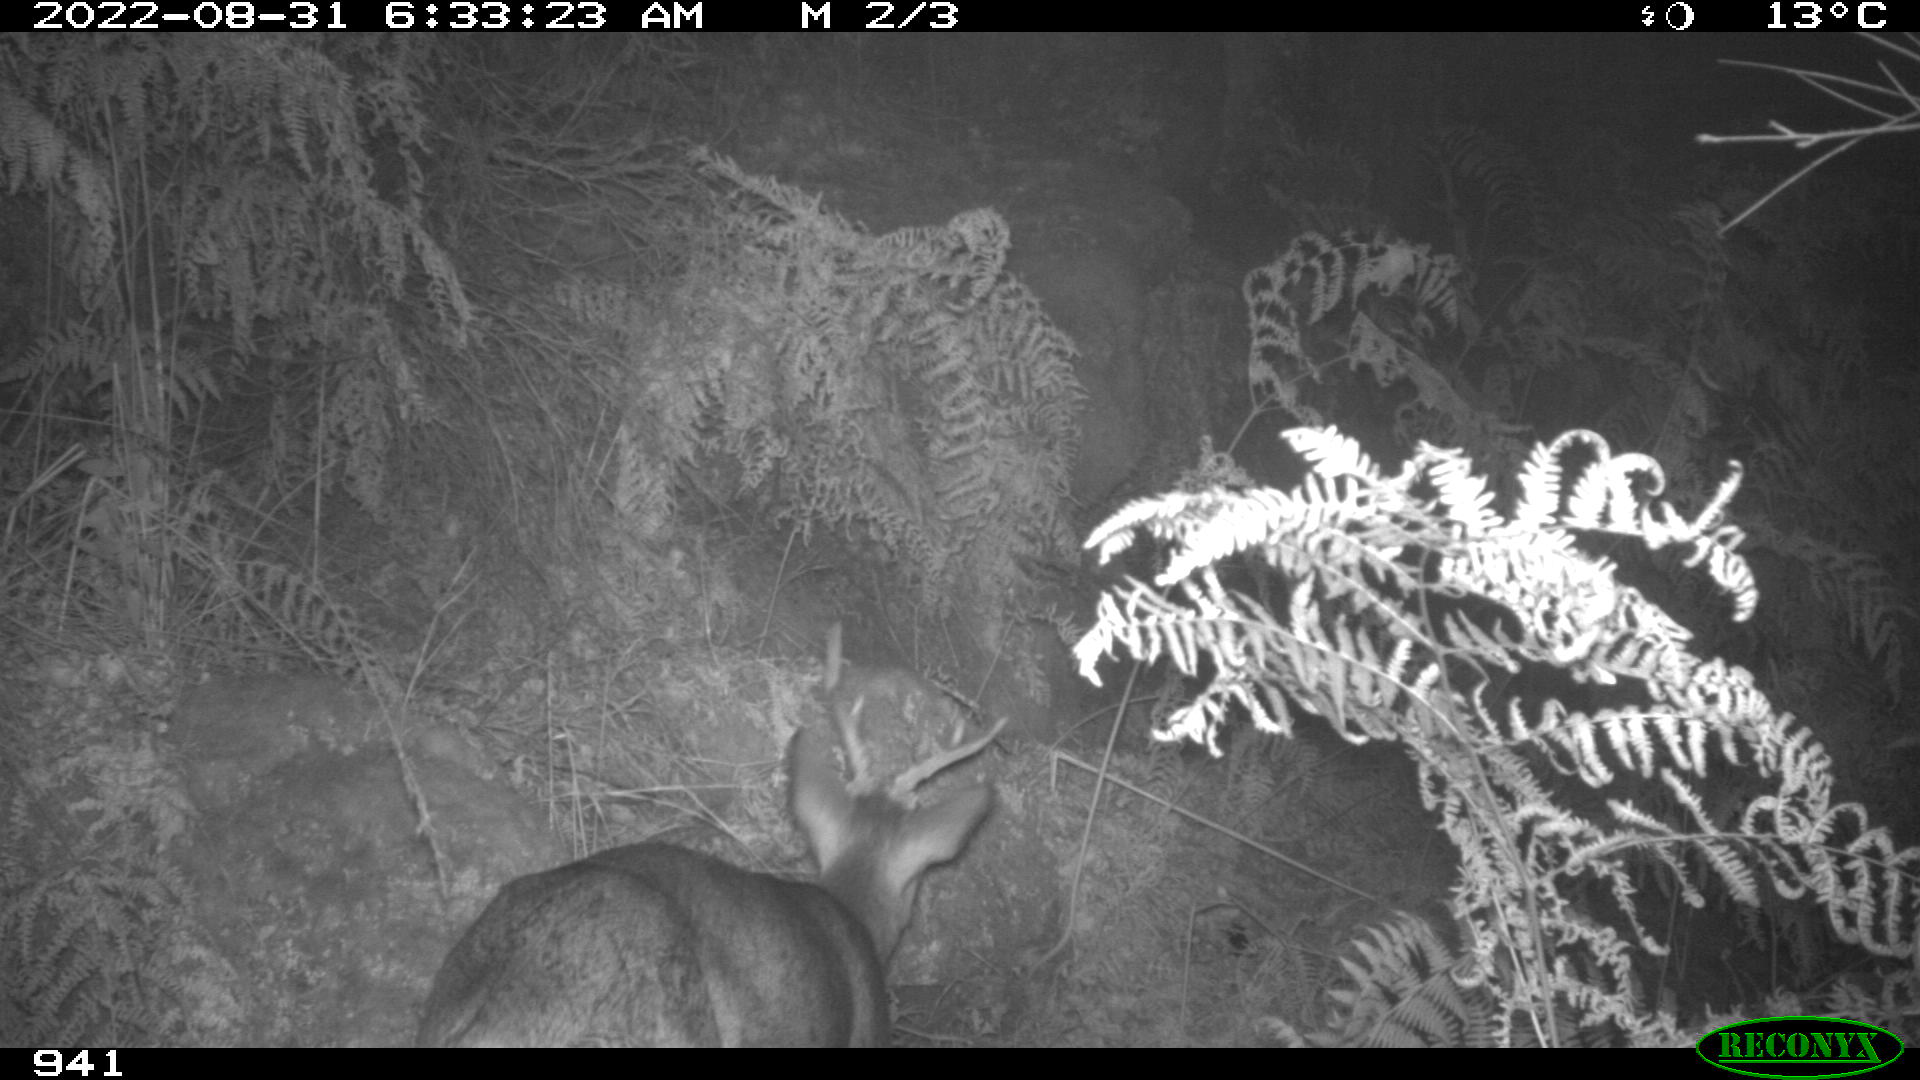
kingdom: Animalia
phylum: Chordata
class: Mammalia
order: Artiodactyla
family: Cervidae
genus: Capreolus
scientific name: Capreolus capreolus
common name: Western roe deer
